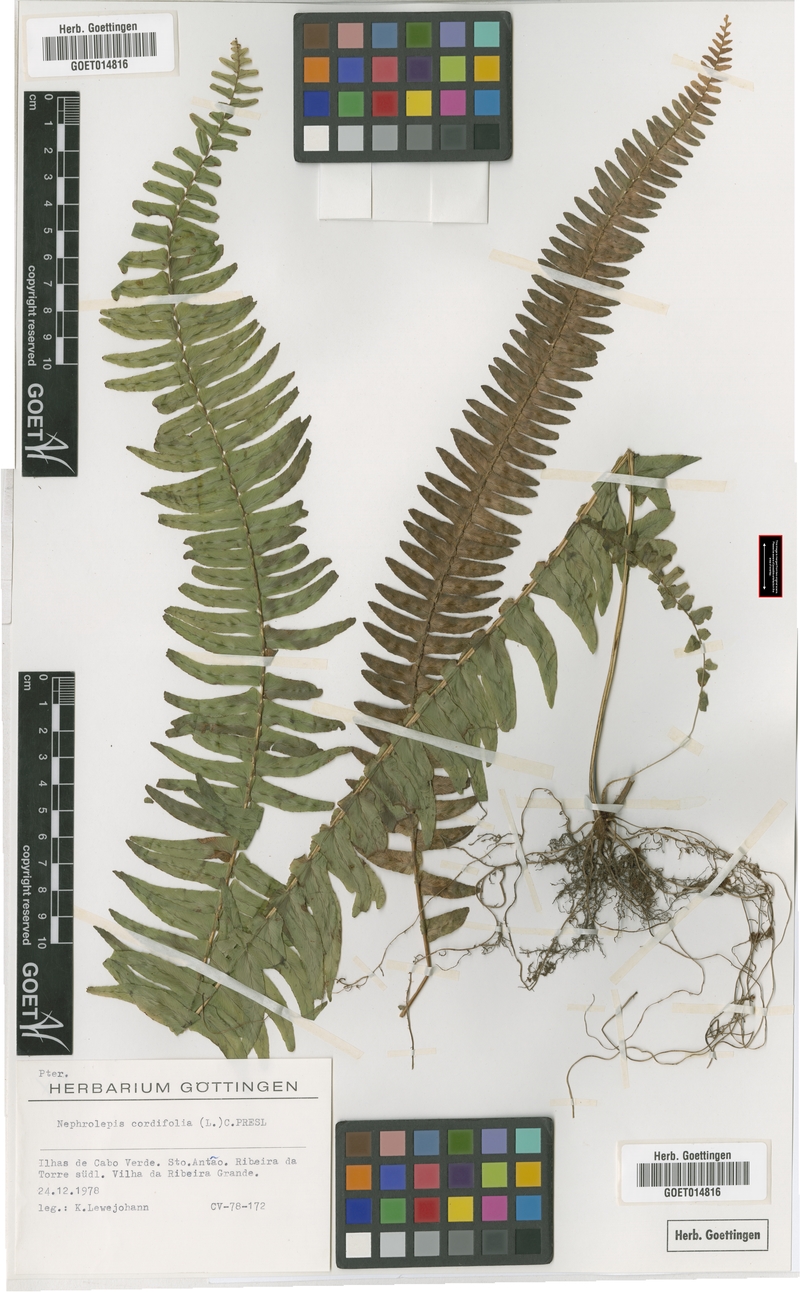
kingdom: Plantae
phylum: Tracheophyta
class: Polypodiopsida
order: Polypodiales
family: Nephrolepidaceae
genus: Nephrolepis
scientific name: Nephrolepis cordifolia
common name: Narrow swordfern
